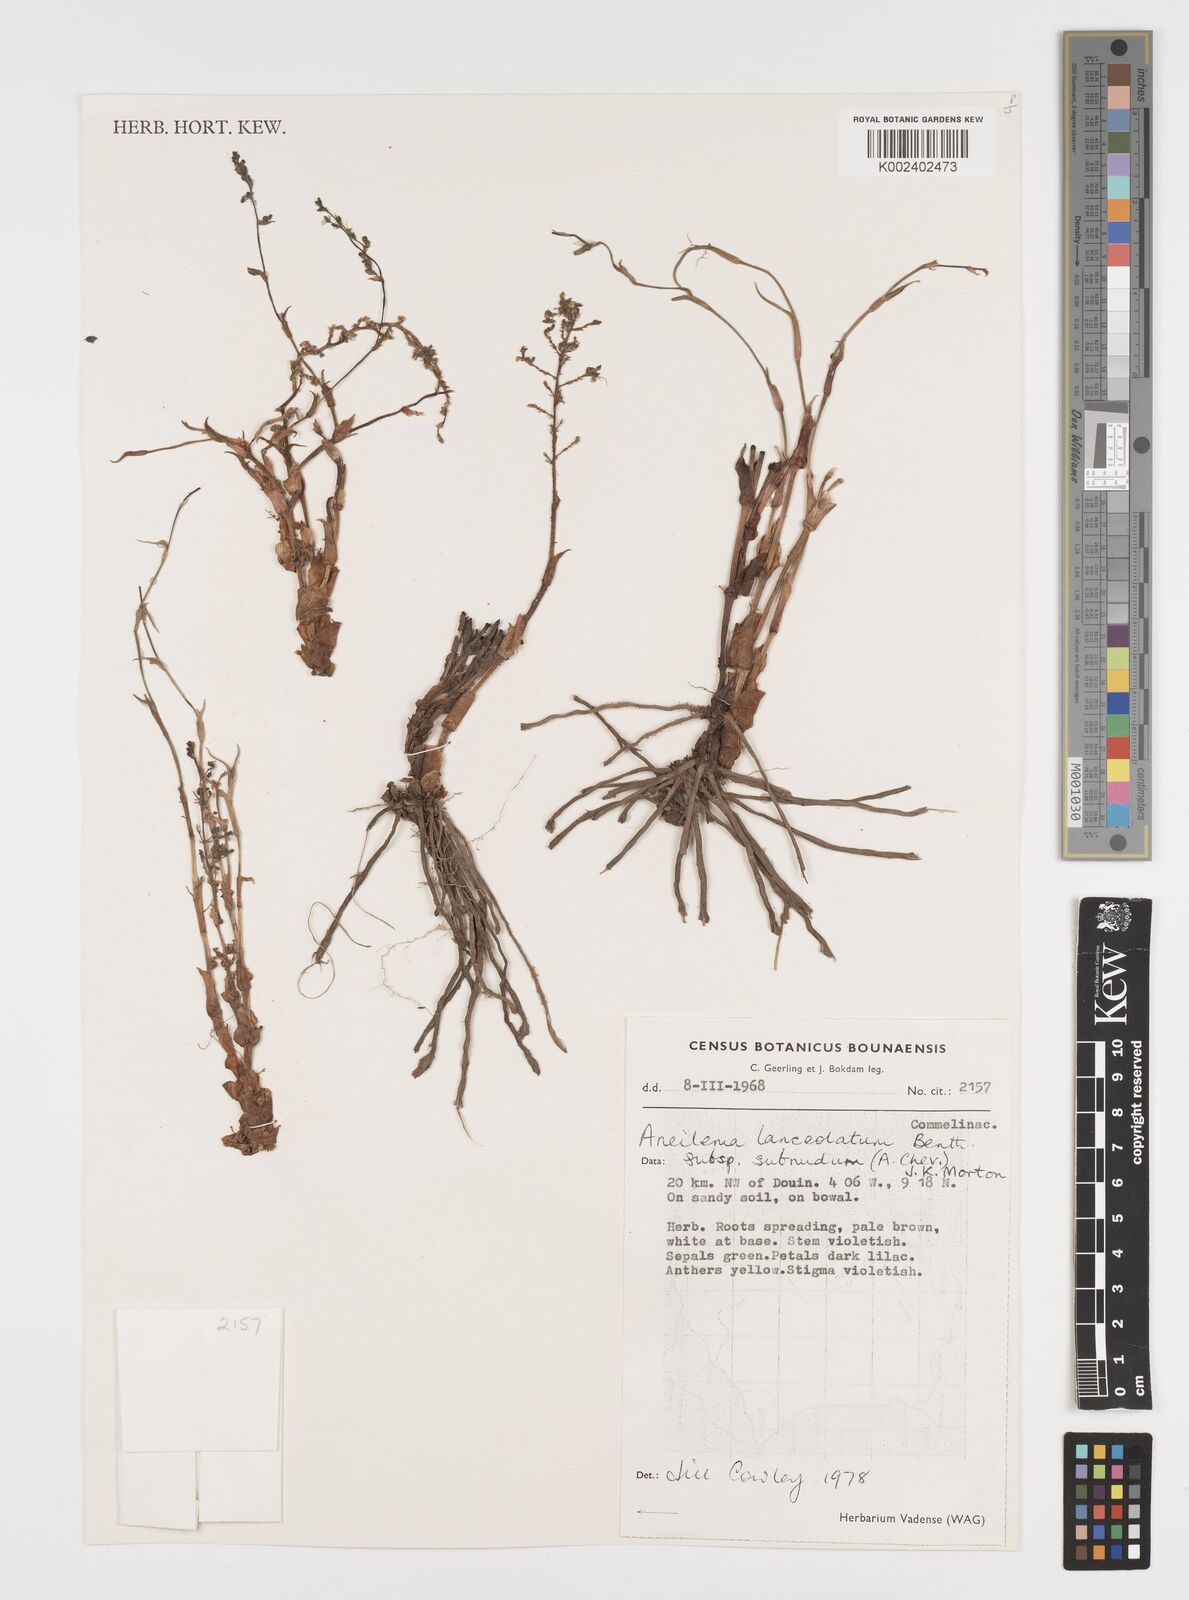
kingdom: Plantae
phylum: Tracheophyta
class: Liliopsida
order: Commelinales
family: Commelinaceae
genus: Aneilema
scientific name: Aneilema lanceolatum
